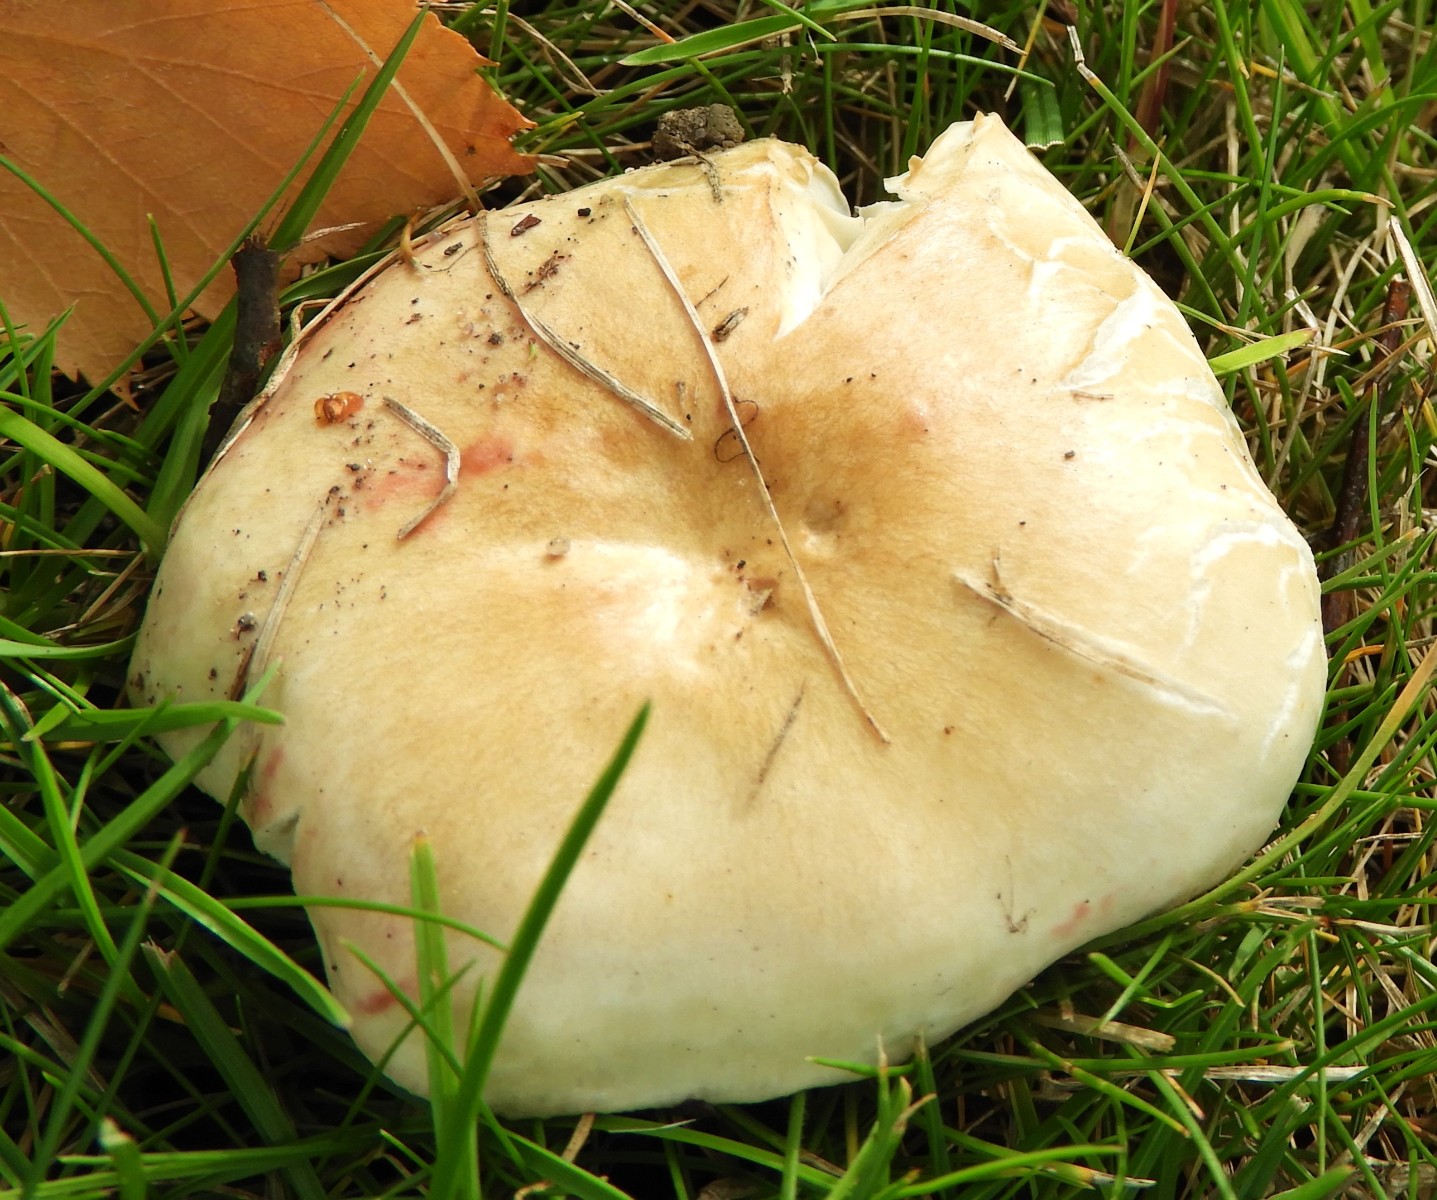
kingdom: Fungi
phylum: Basidiomycota
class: Agaricomycetes
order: Russulales
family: Russulaceae
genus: Russula
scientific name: Russula depallens
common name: falmende skørhat
